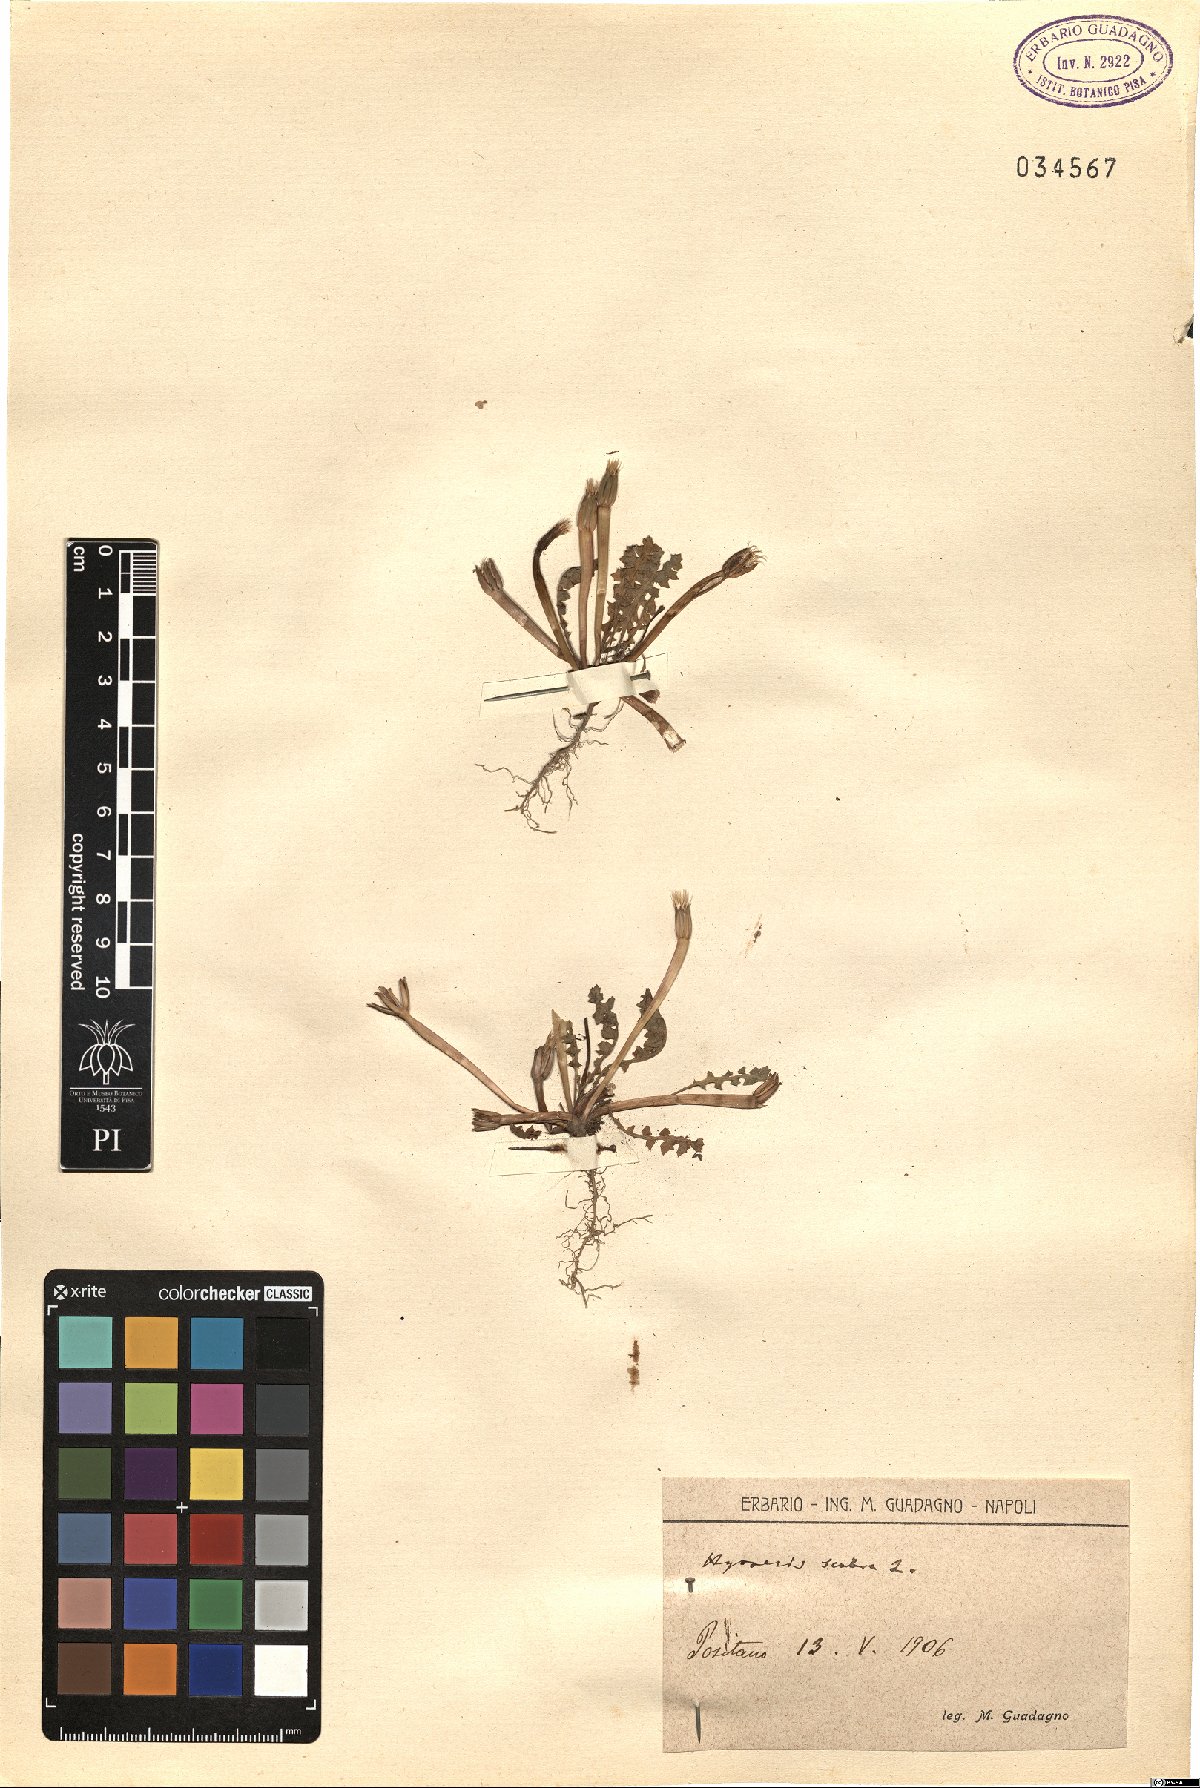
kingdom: Plantae
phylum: Tracheophyta
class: Magnoliopsida
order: Asterales
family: Asteraceae
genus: Hyoseris
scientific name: Hyoseris scabra
